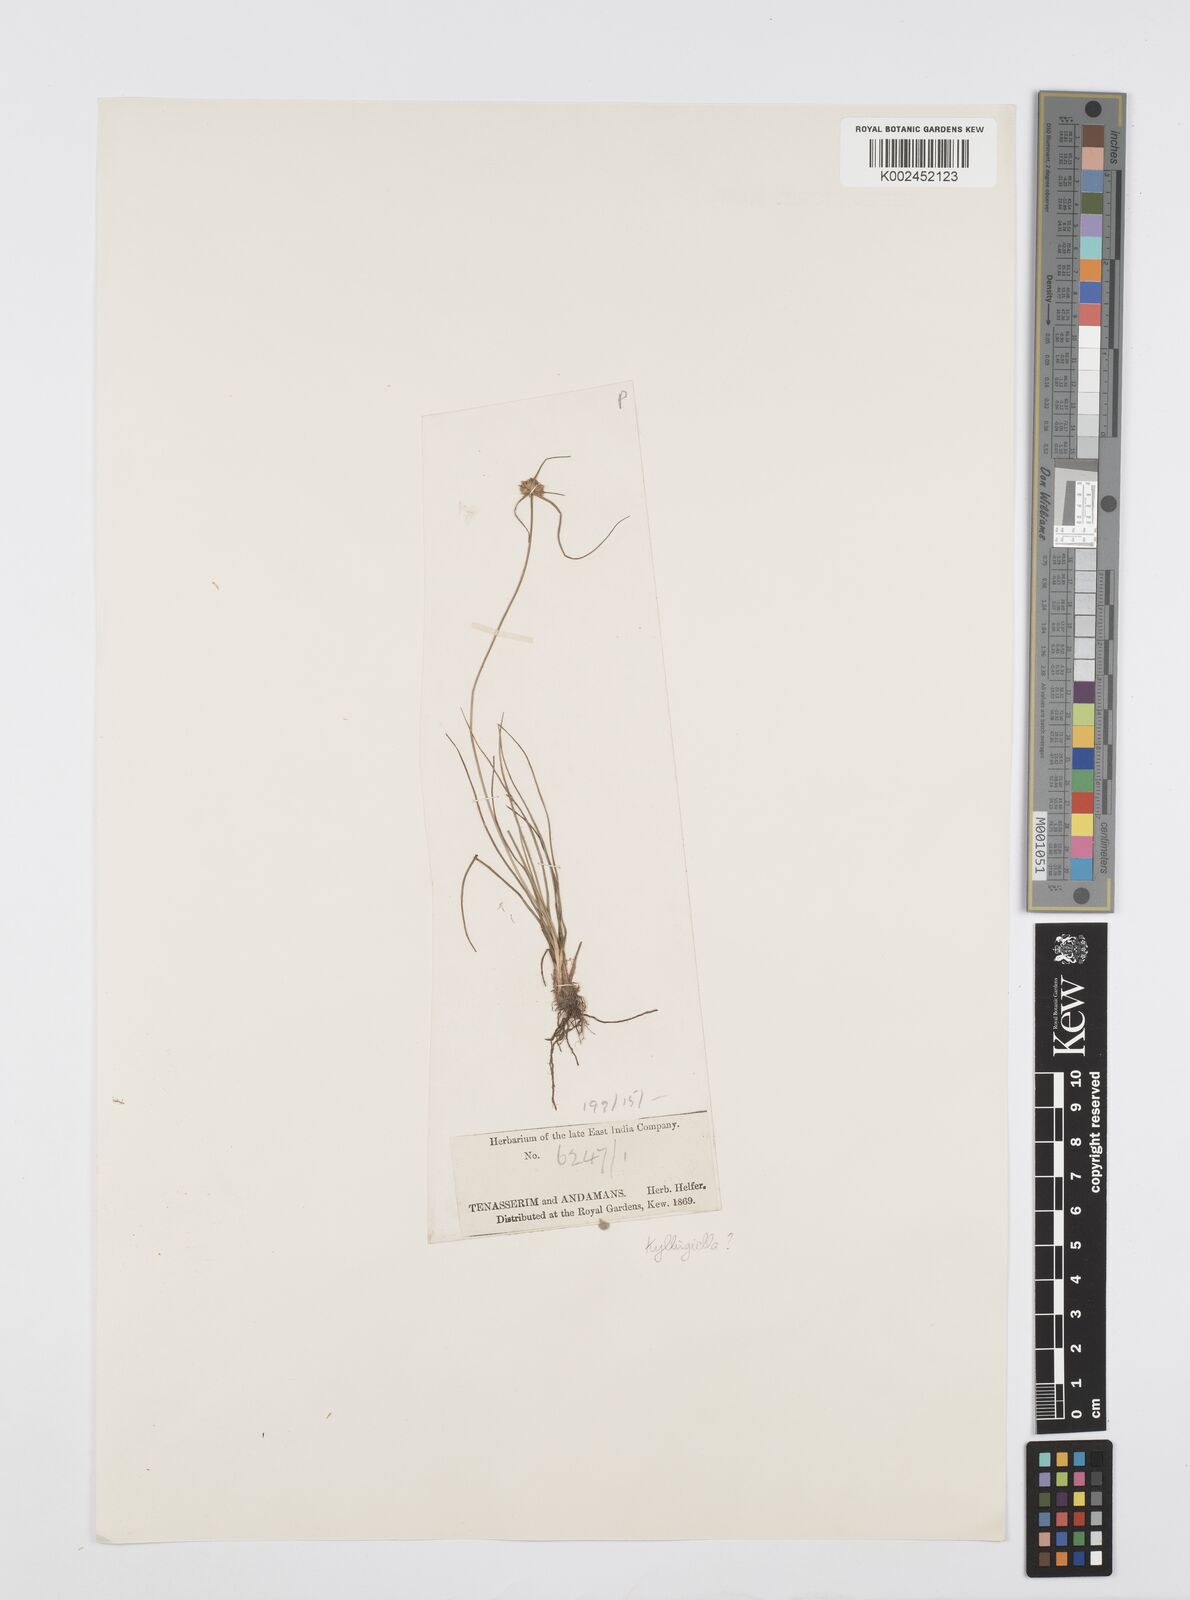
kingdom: Plantae
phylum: Tracheophyta
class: Liliopsida
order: Poales
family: Cyperaceae
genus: Cyperus
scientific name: Cyperus
